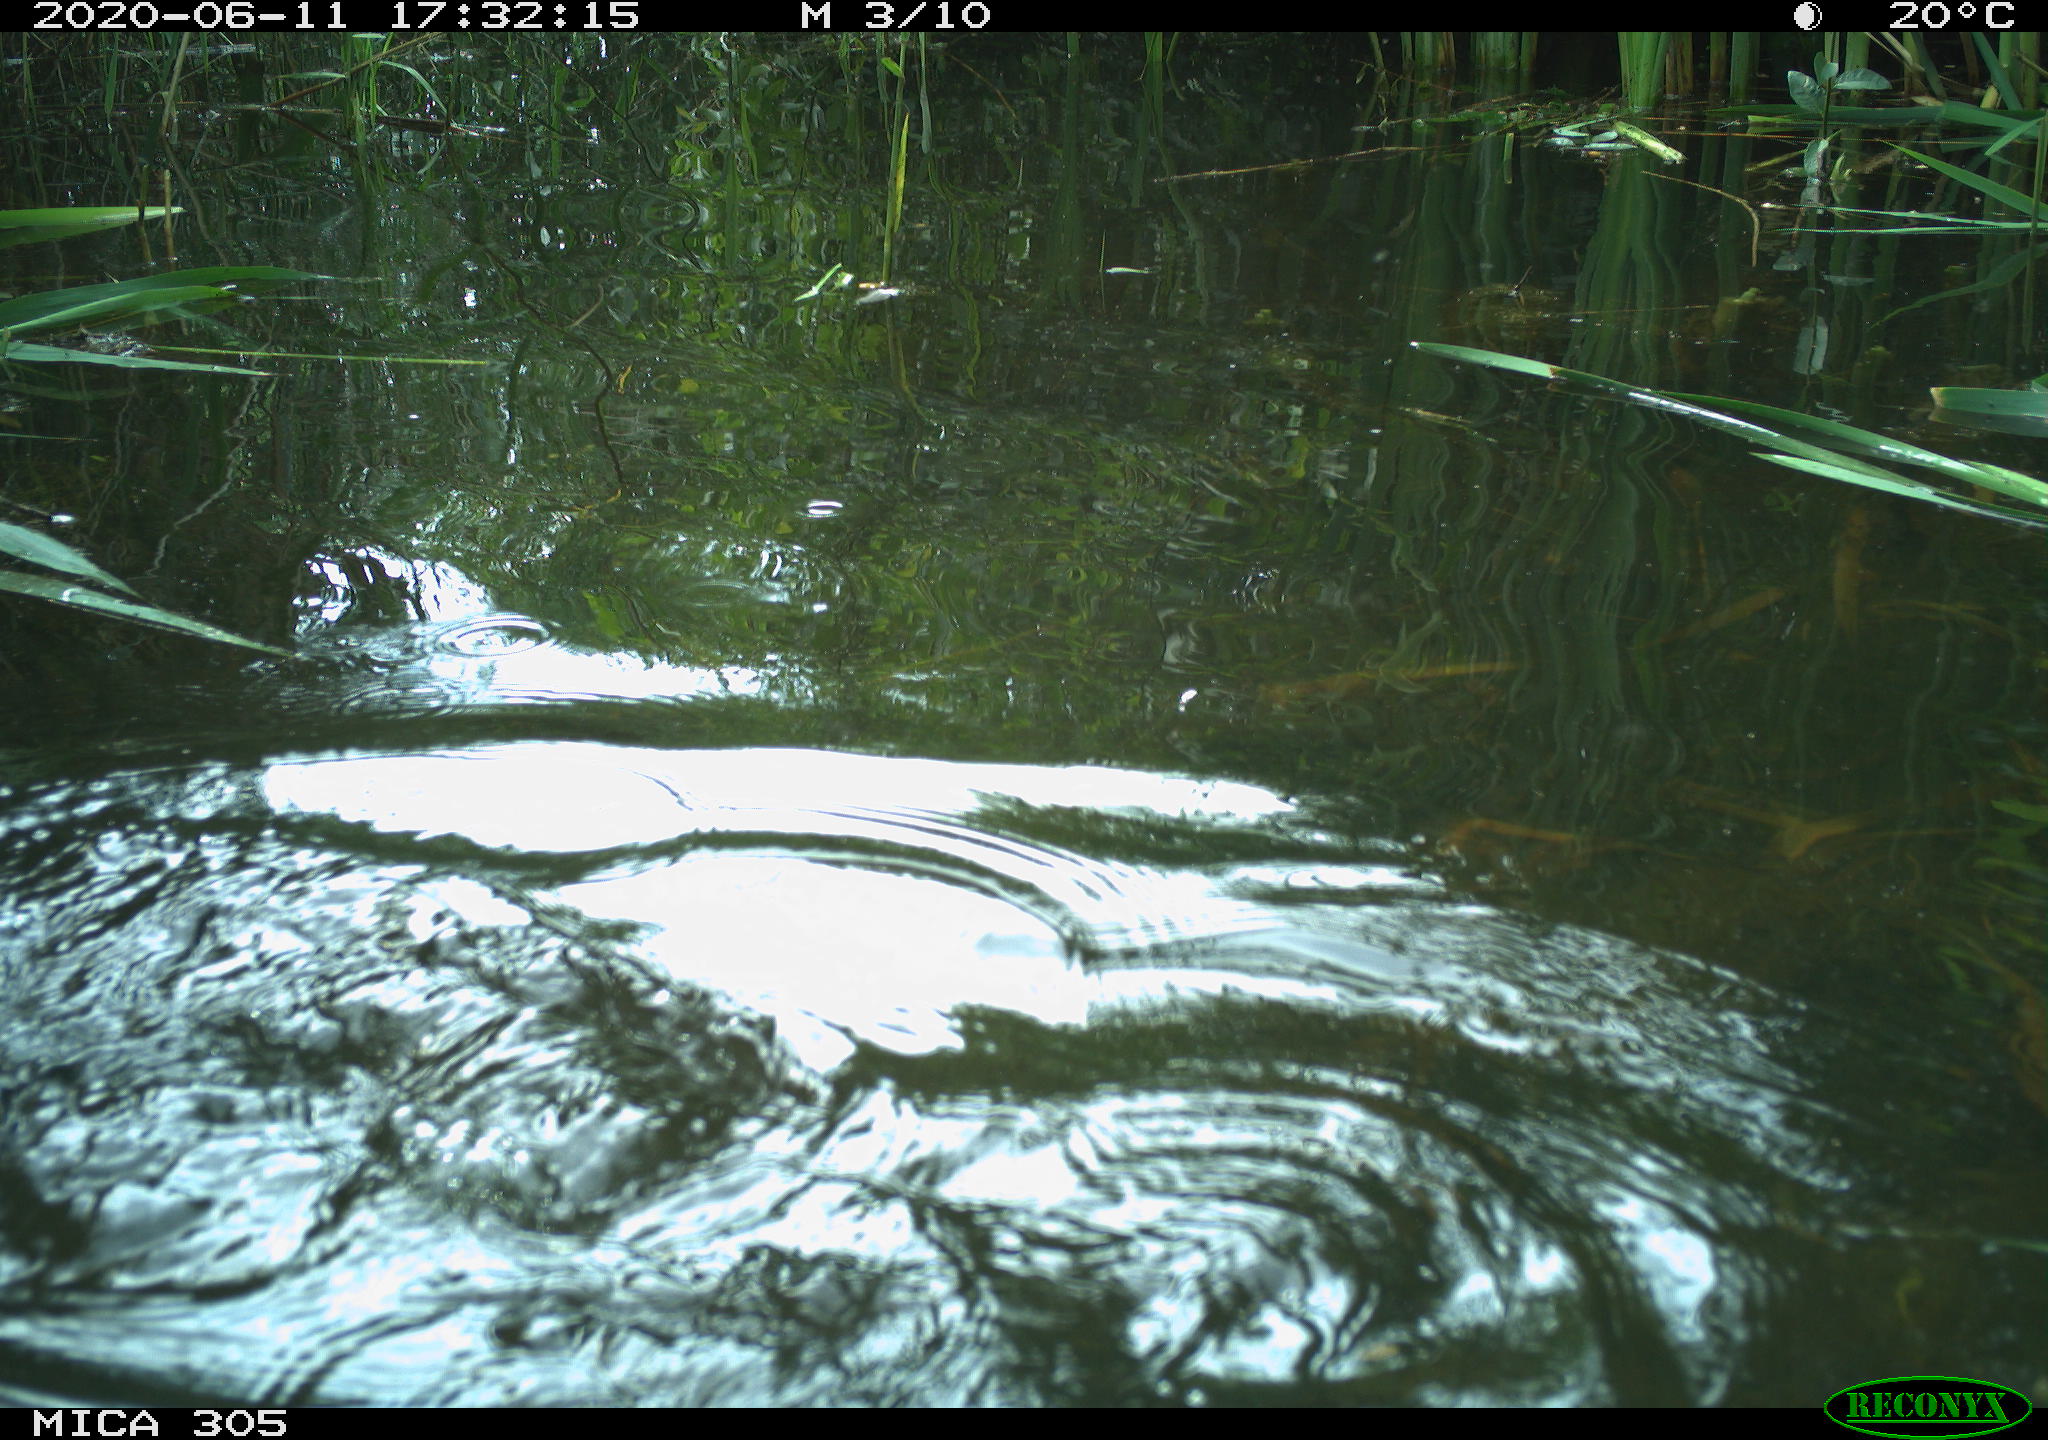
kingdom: Animalia
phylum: Chordata
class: Aves
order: Suliformes
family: Phalacrocoracidae
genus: Phalacrocorax
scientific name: Phalacrocorax carbo
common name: Great cormorant
